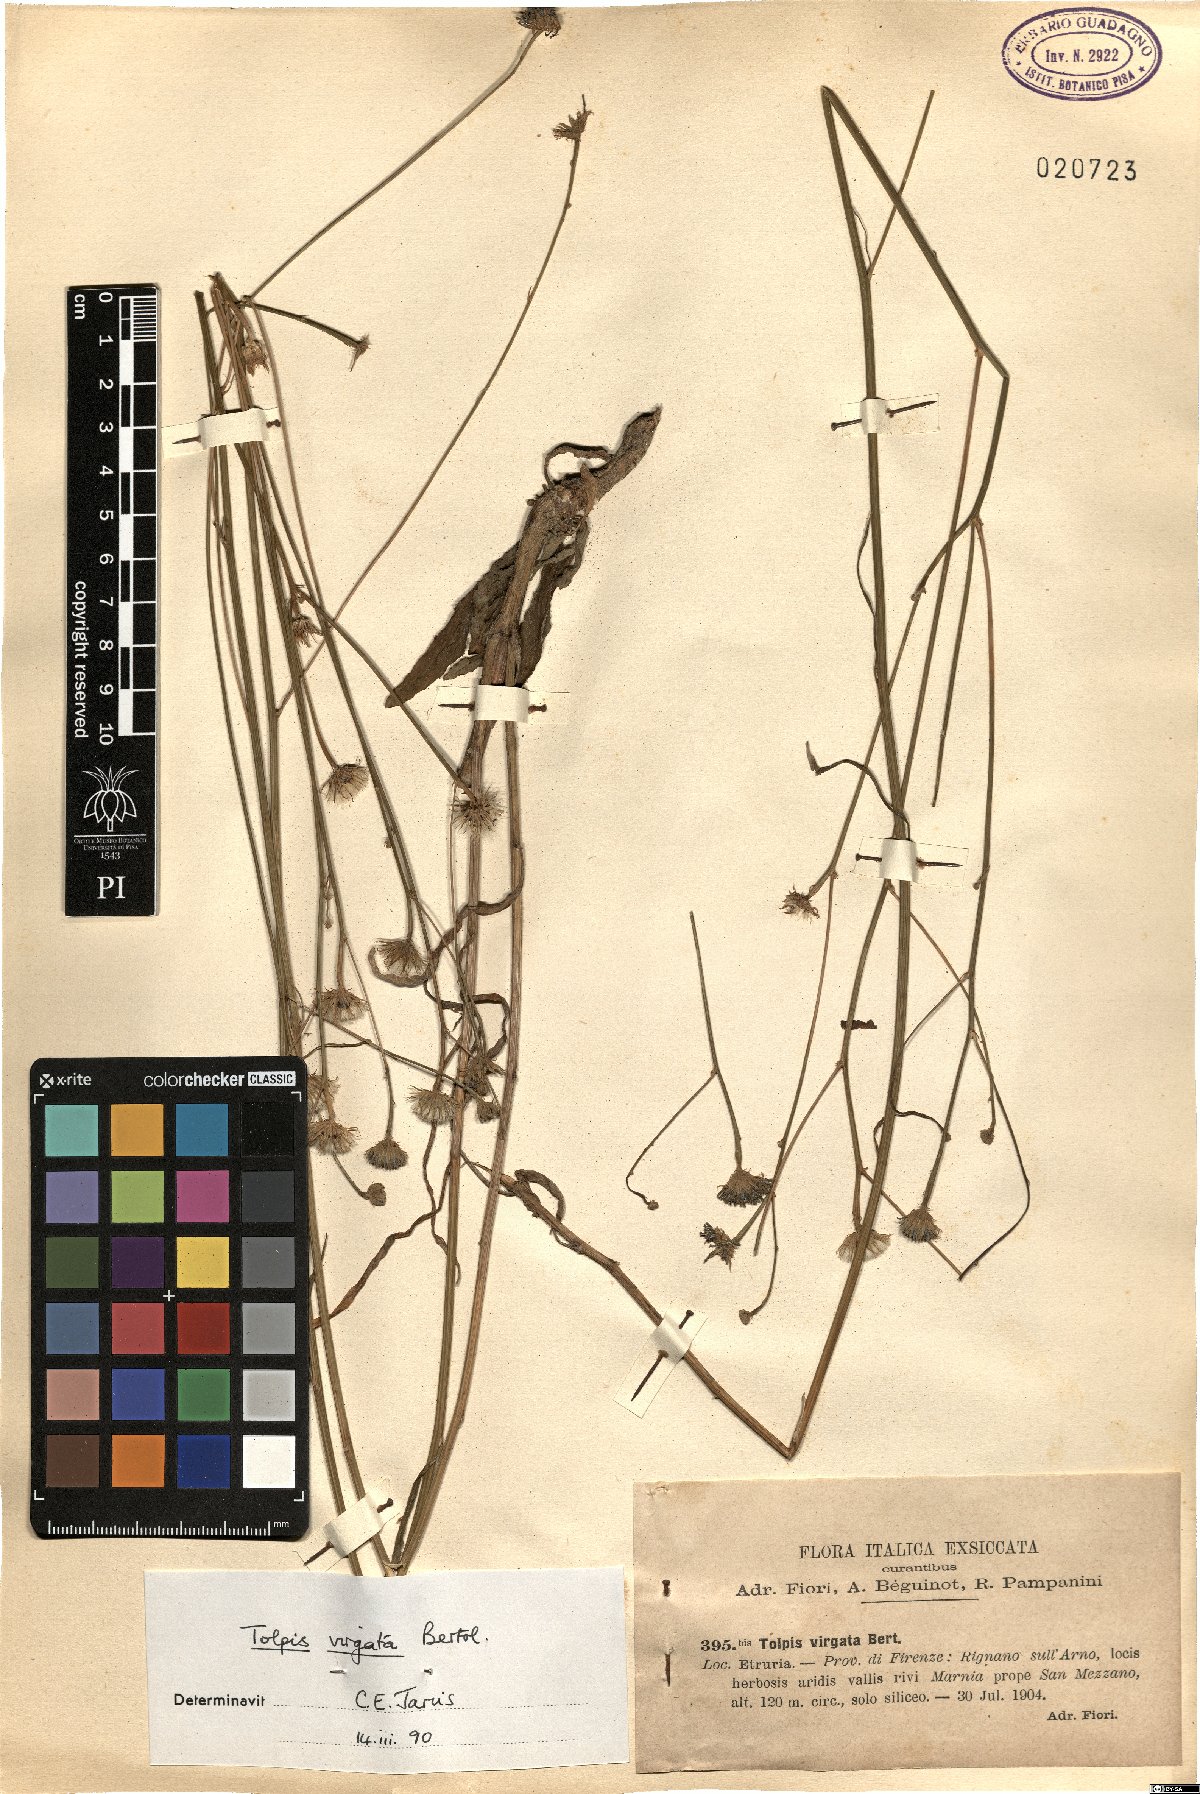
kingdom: Plantae
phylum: Tracheophyta
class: Magnoliopsida
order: Asterales
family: Asteraceae
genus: Tolpis
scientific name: Tolpis virgata
